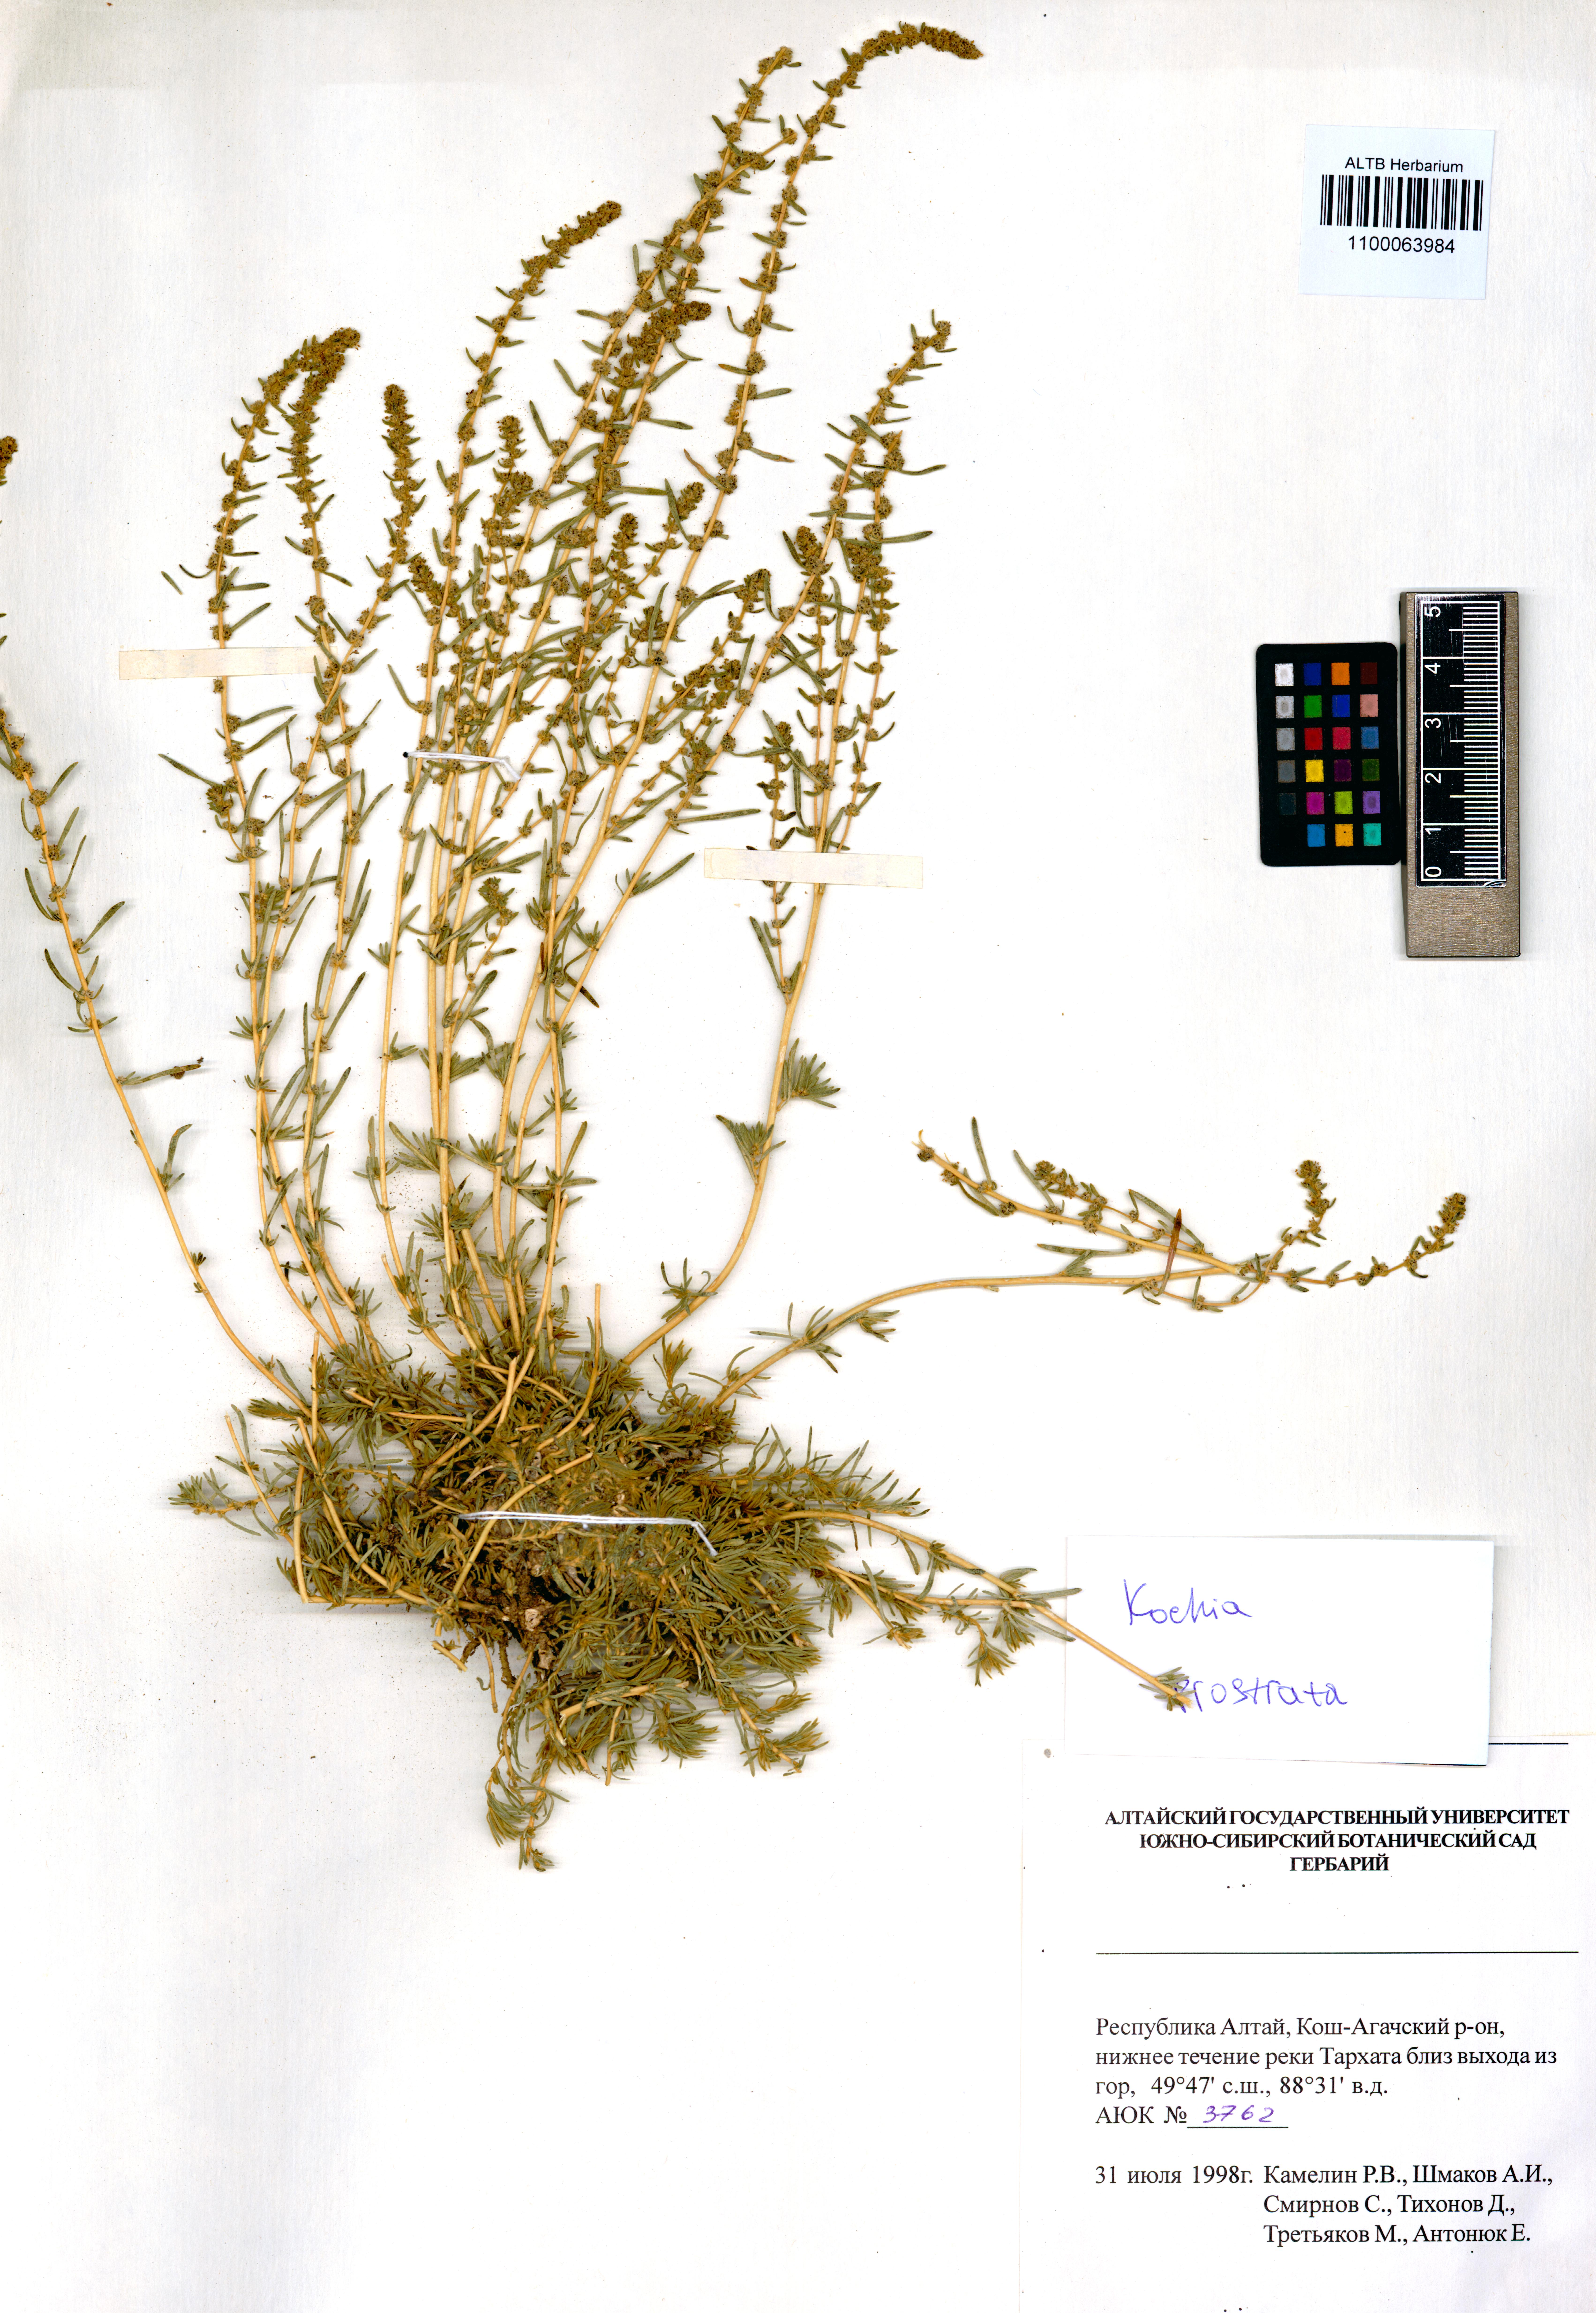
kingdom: Plantae
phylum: Tracheophyta
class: Magnoliopsida
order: Caryophyllales
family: Amaranthaceae
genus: Bassia
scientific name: Bassia prostrata
